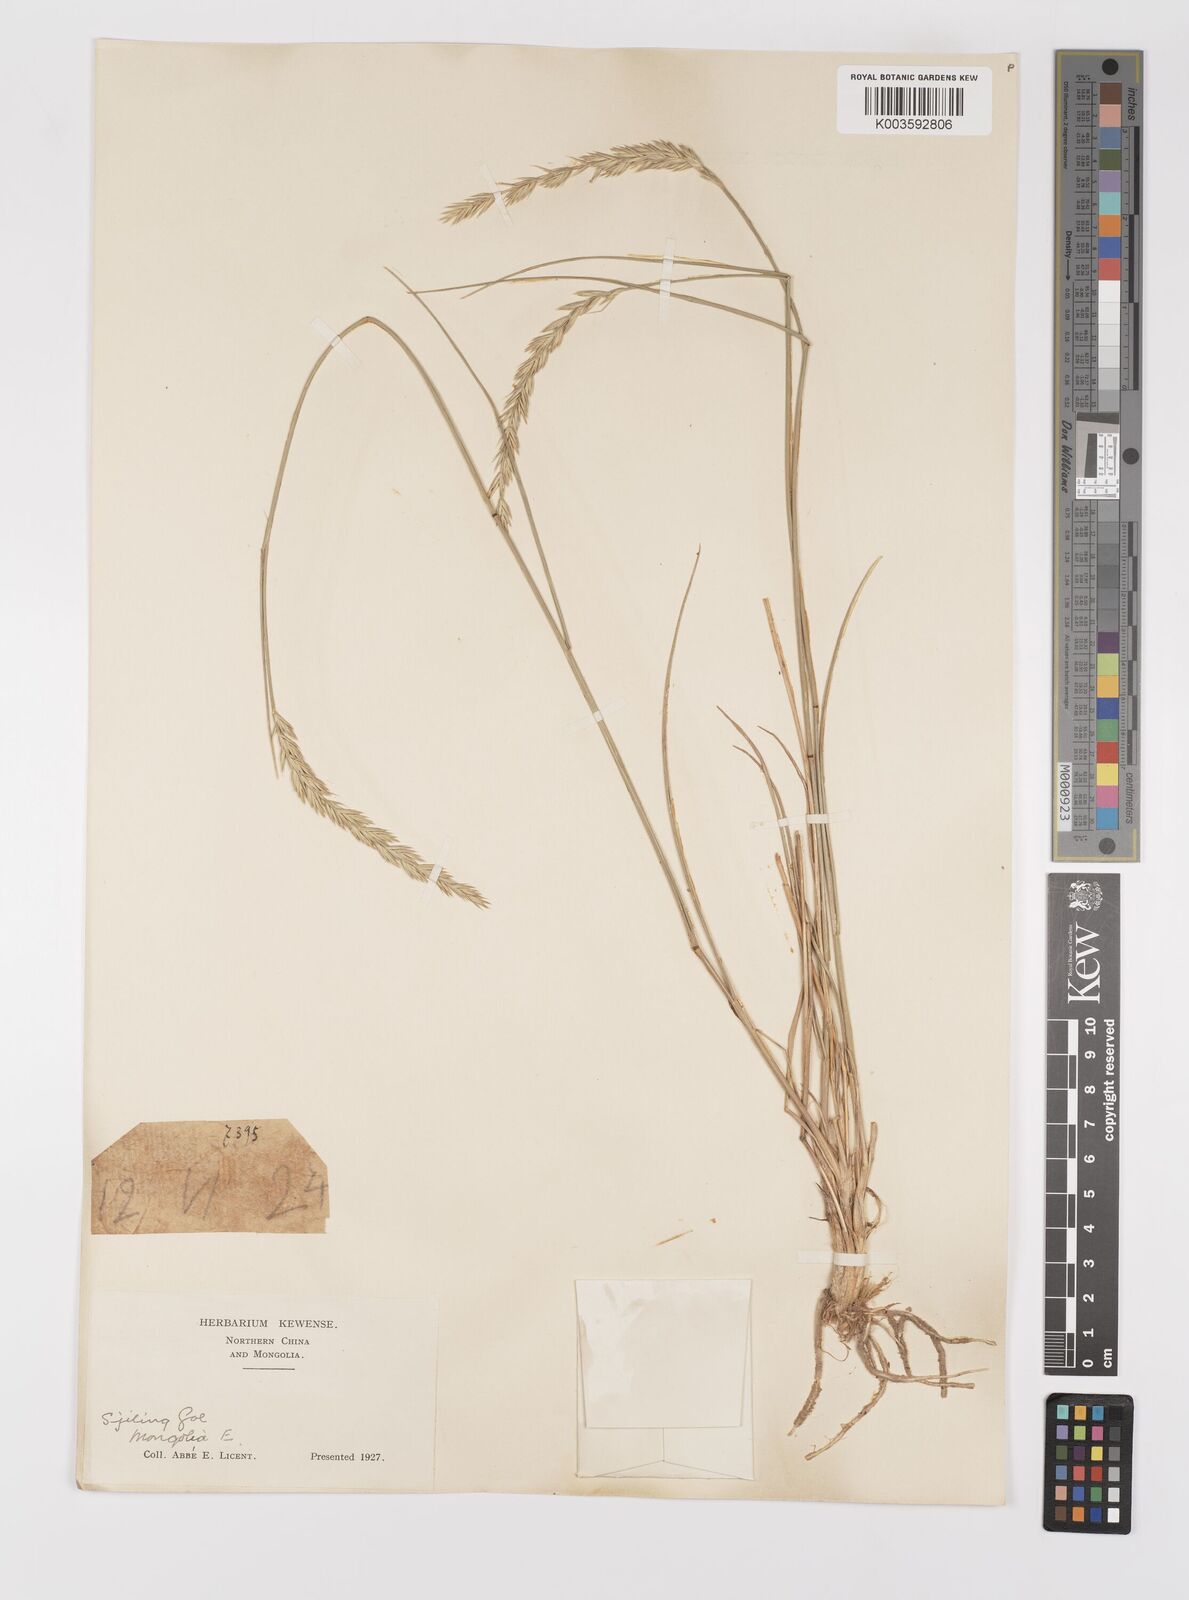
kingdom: Plantae
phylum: Tracheophyta
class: Liliopsida
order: Poales
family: Poaceae
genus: Agropyron
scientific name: Agropyron cristatum
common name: Crested wheatgrass
